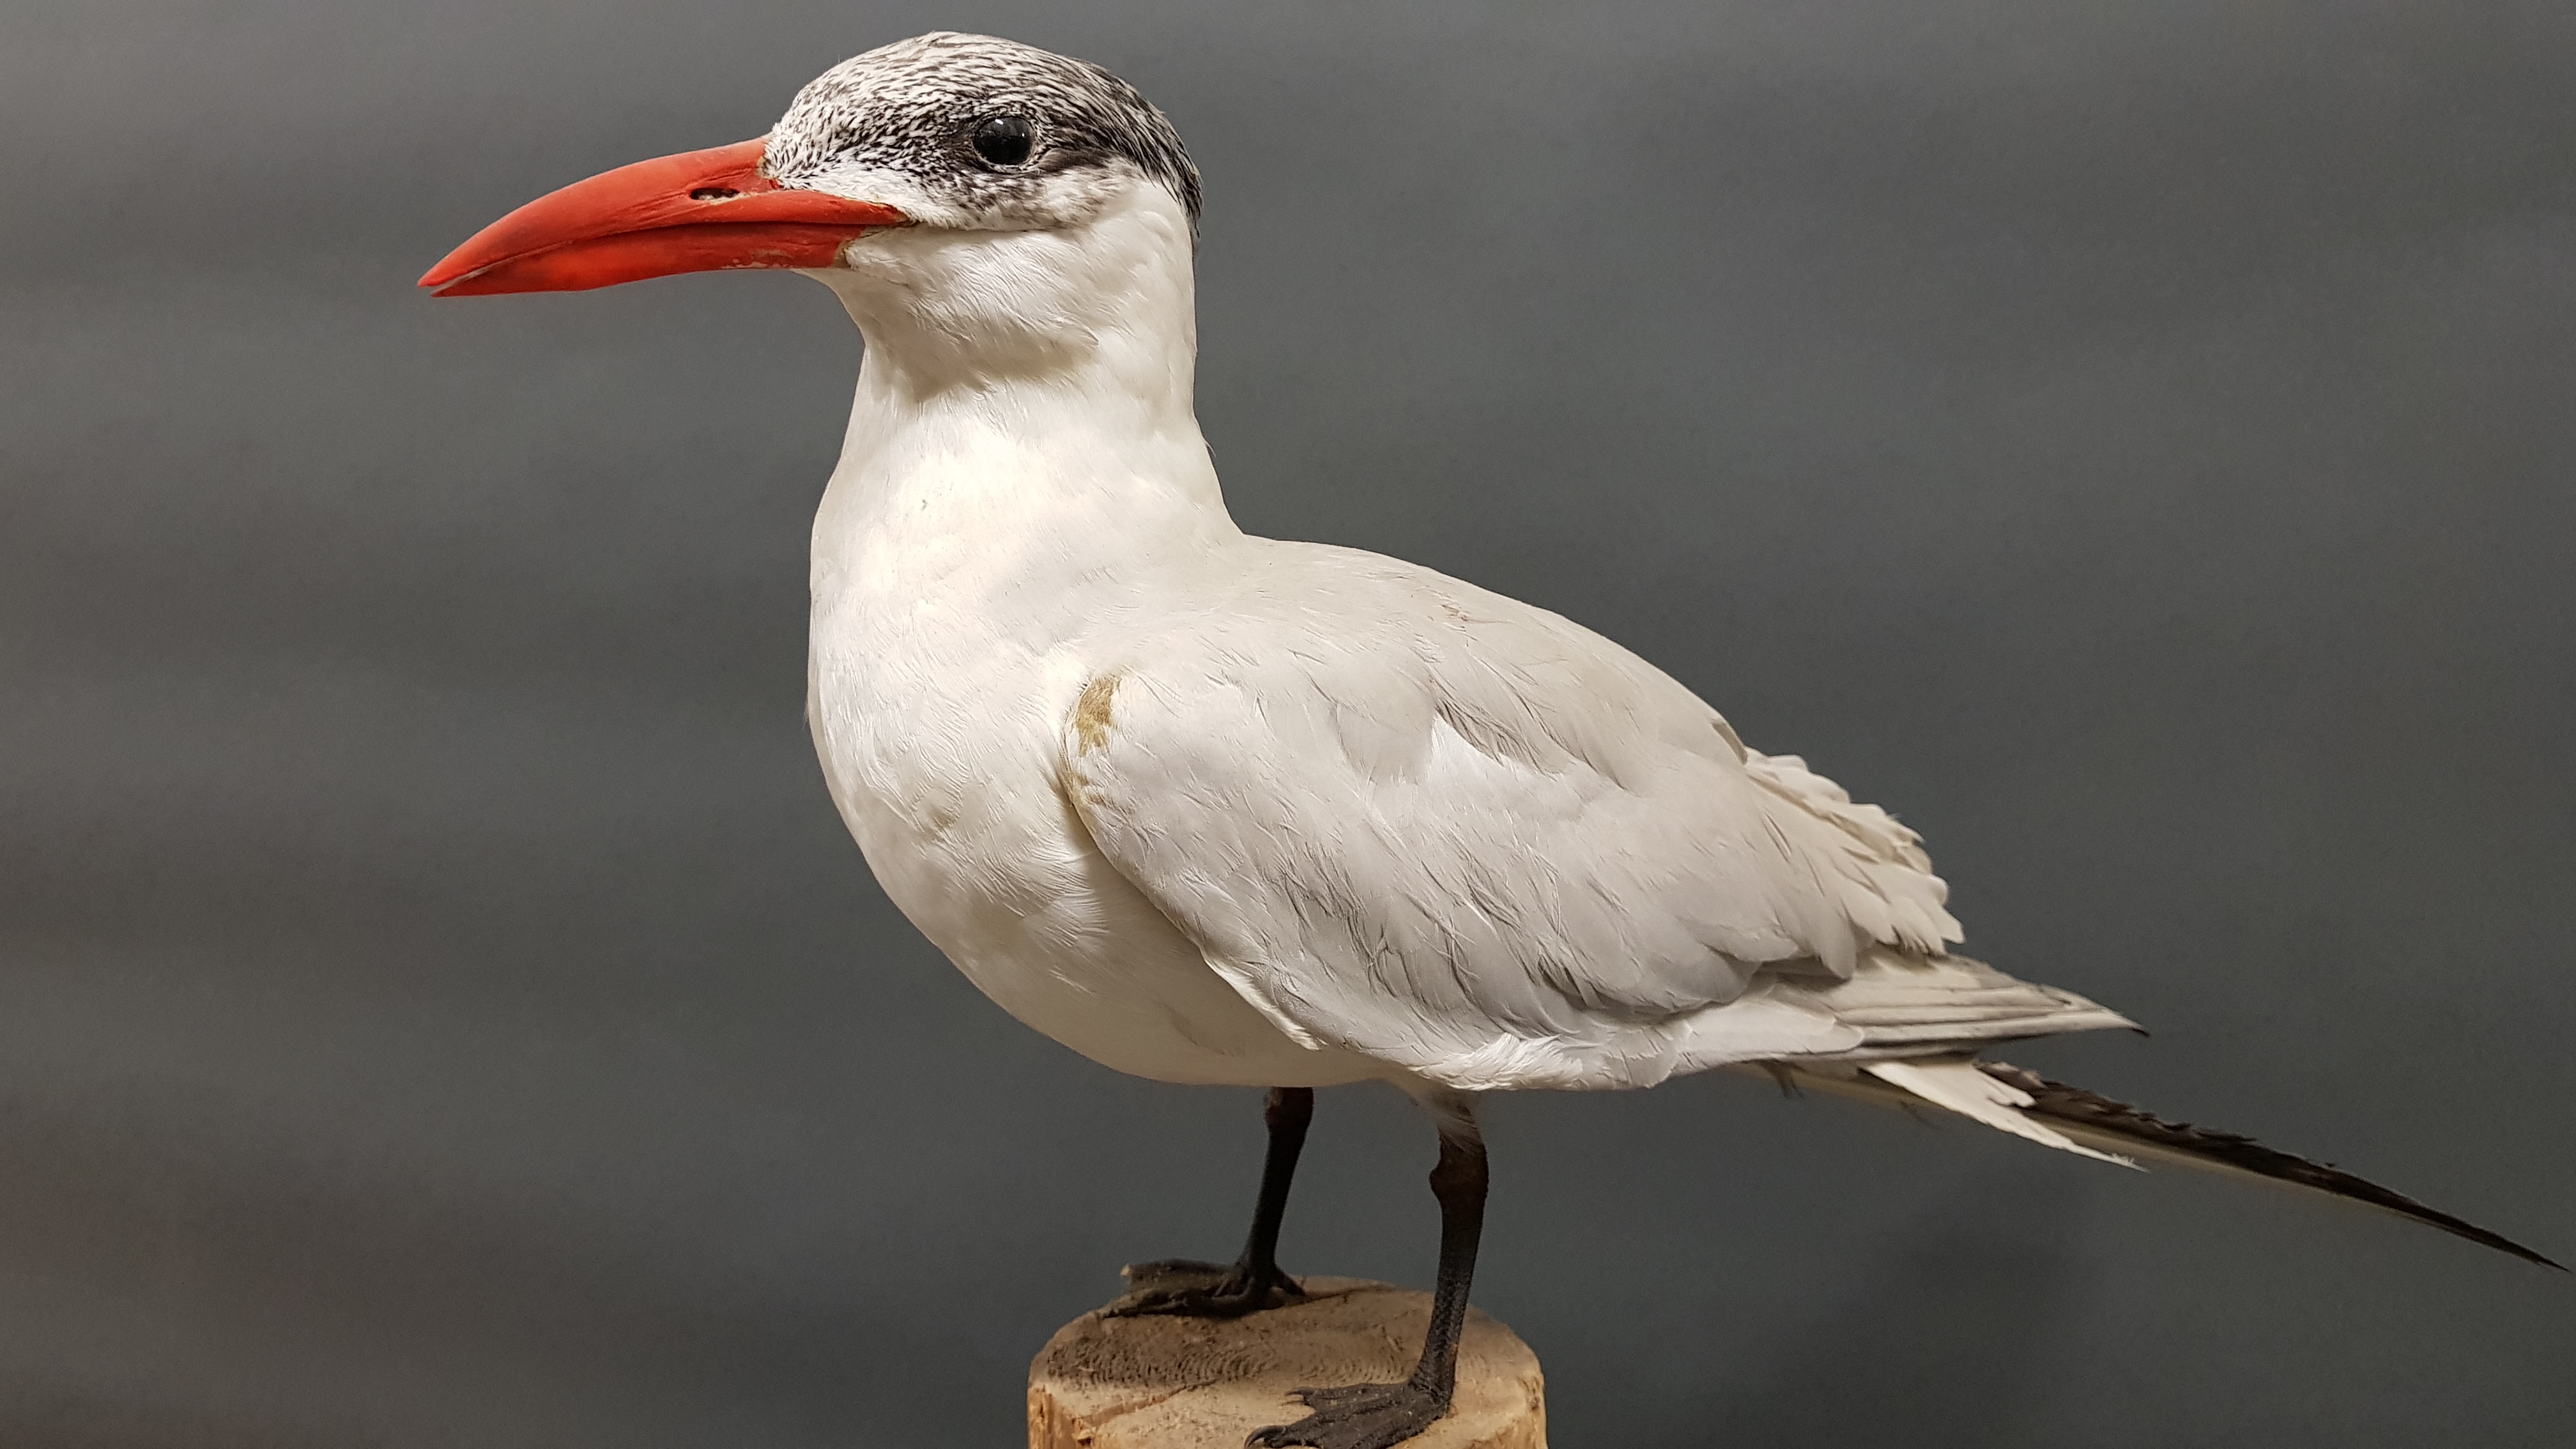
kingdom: Animalia
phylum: Chordata
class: Aves
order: Charadriiformes
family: Laridae
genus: Hydroprogne
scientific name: Hydroprogne caspia
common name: Caspian tern
